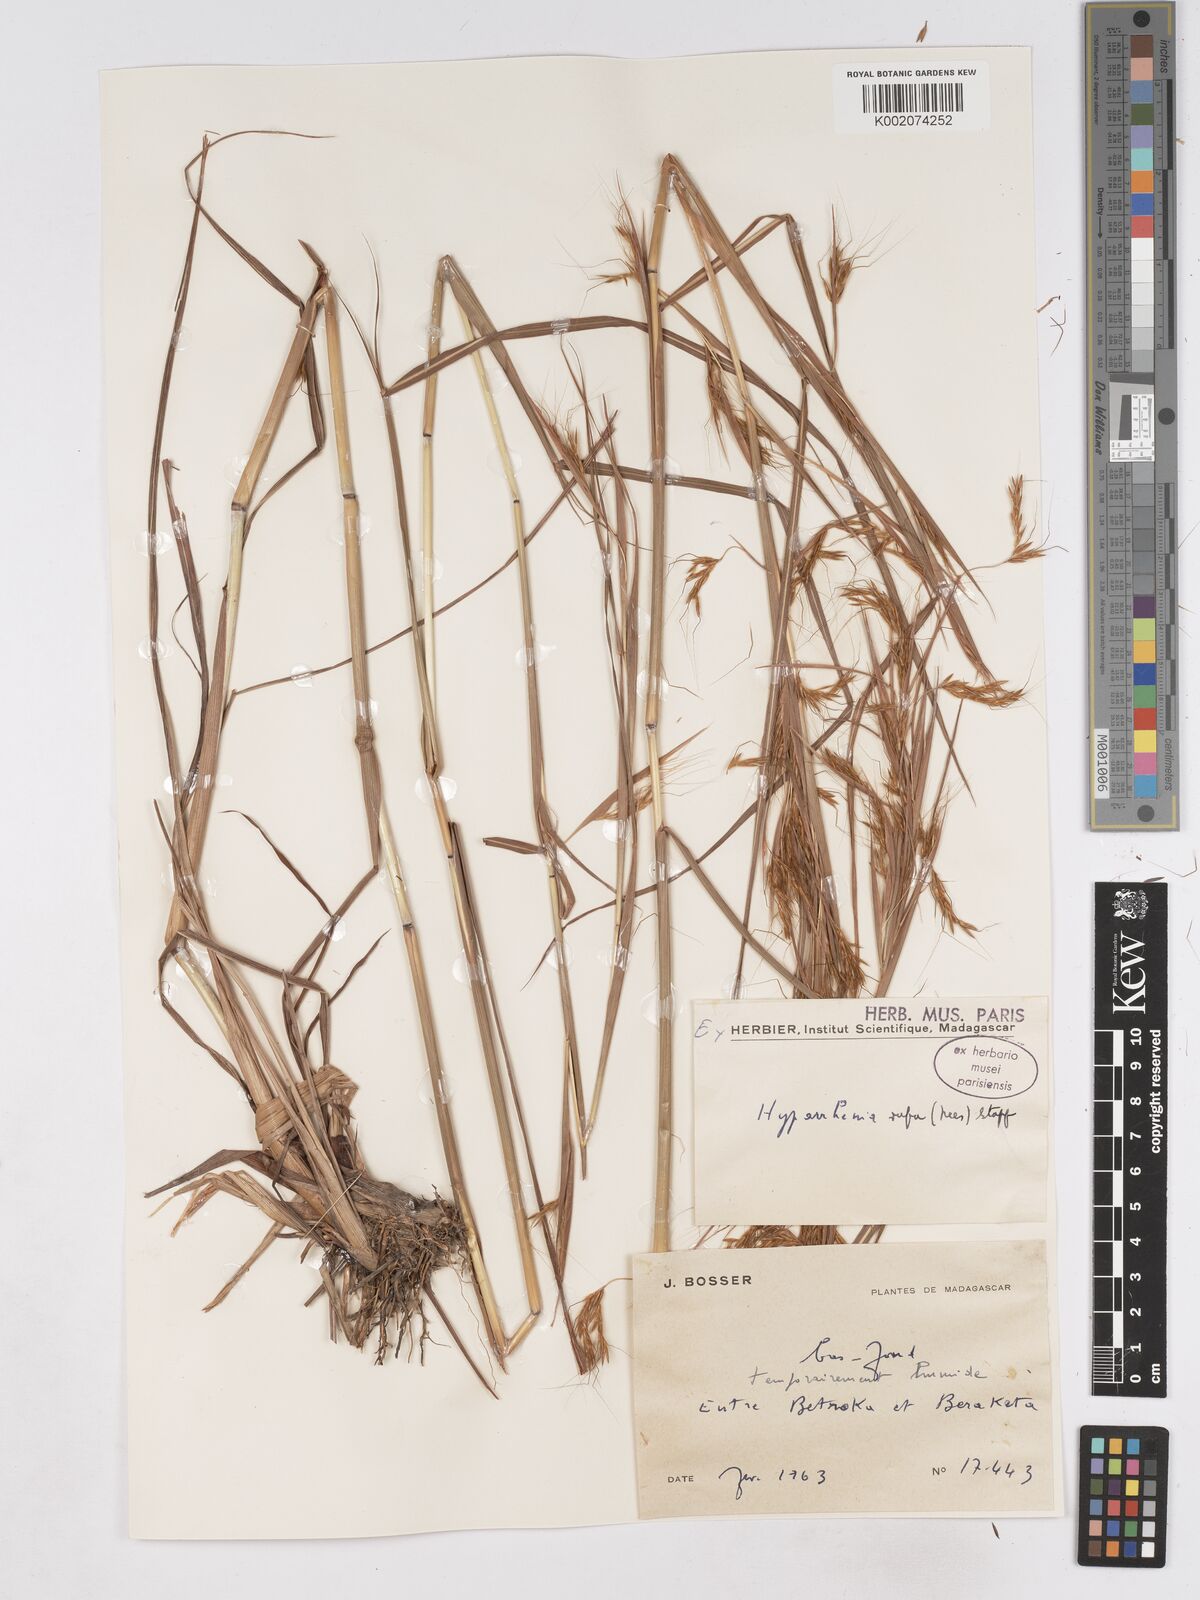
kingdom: Plantae
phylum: Tracheophyta
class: Liliopsida
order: Poales
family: Poaceae
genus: Hyparrhenia
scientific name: Hyparrhenia rufa
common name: Jaraguagrass
